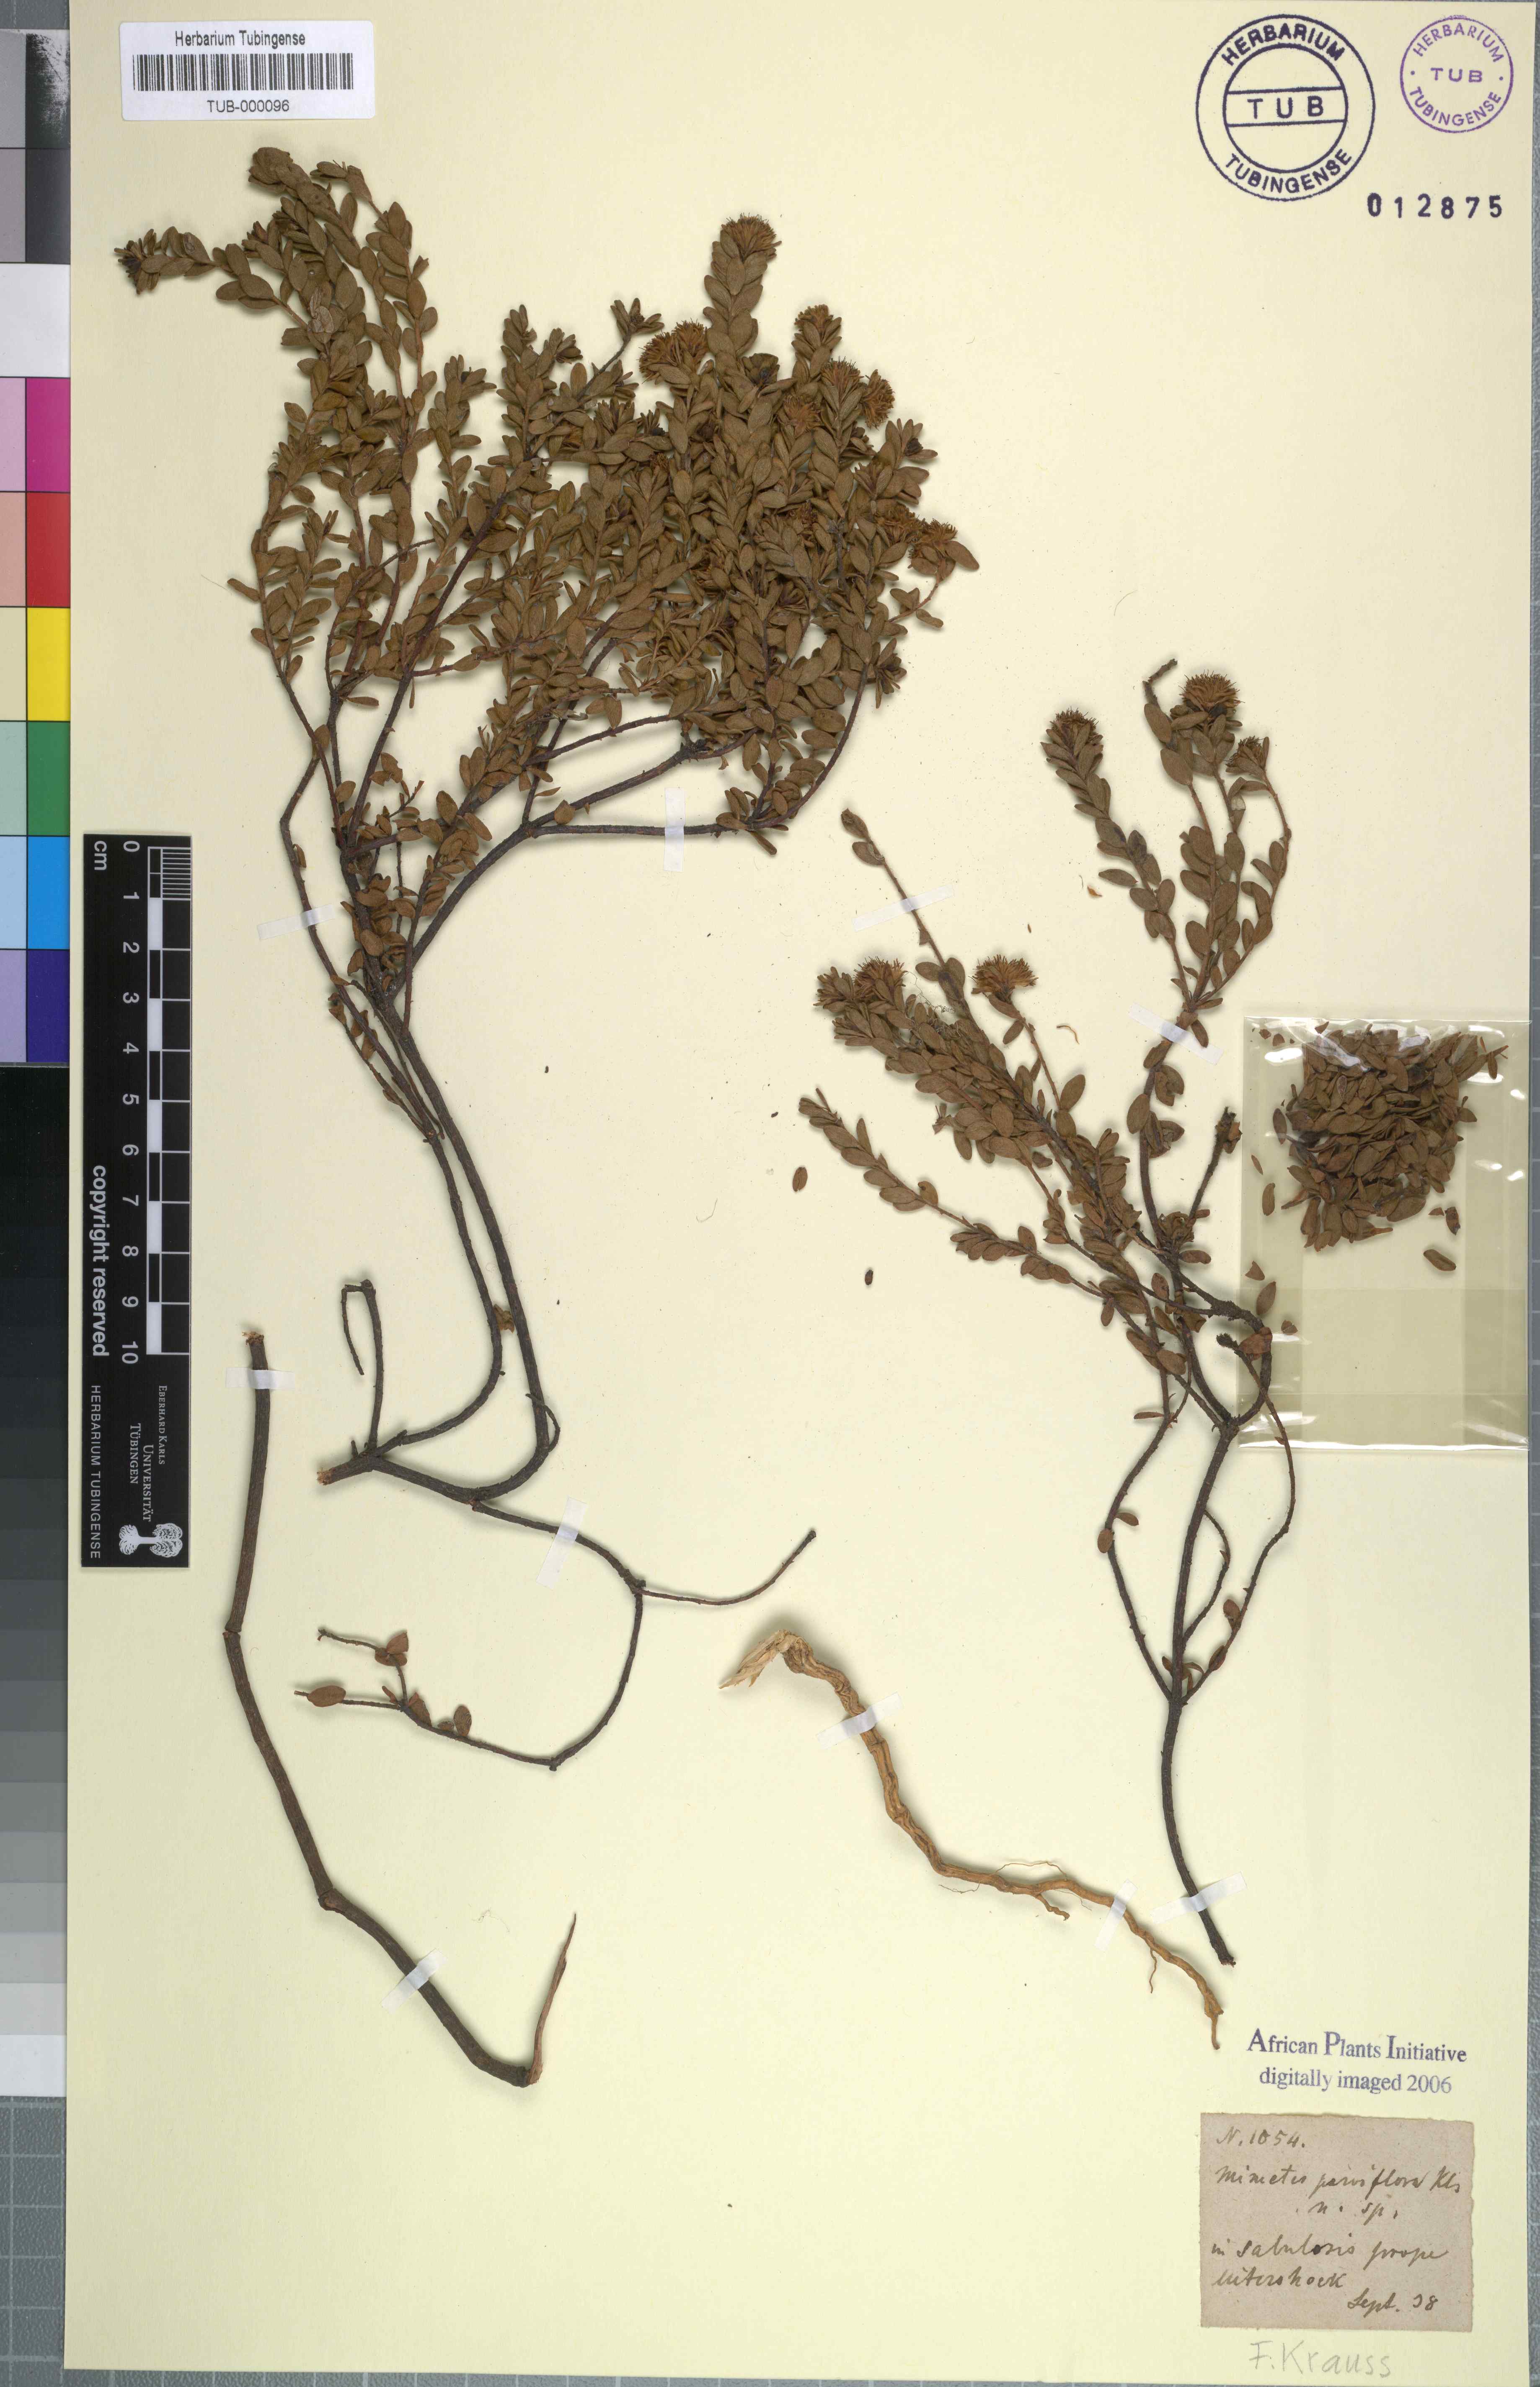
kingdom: Plantae
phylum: Tracheophyta
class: Magnoliopsida
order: Proteales
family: Proteaceae
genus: Diastella
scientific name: Diastella divaricata
